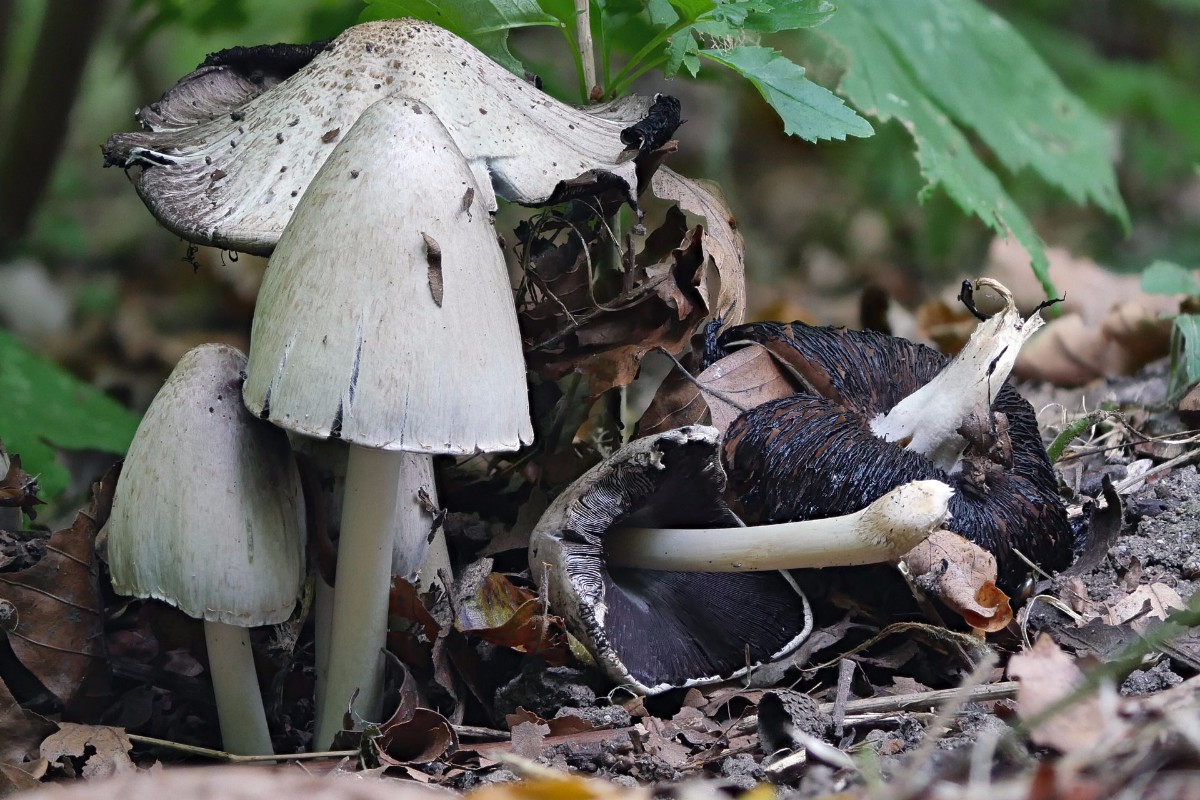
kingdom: Fungi
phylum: Basidiomycota
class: Agaricomycetes
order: Agaricales
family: Psathyrellaceae
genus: Coprinopsis
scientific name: Coprinopsis atramentaria
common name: almindelig blækhat
